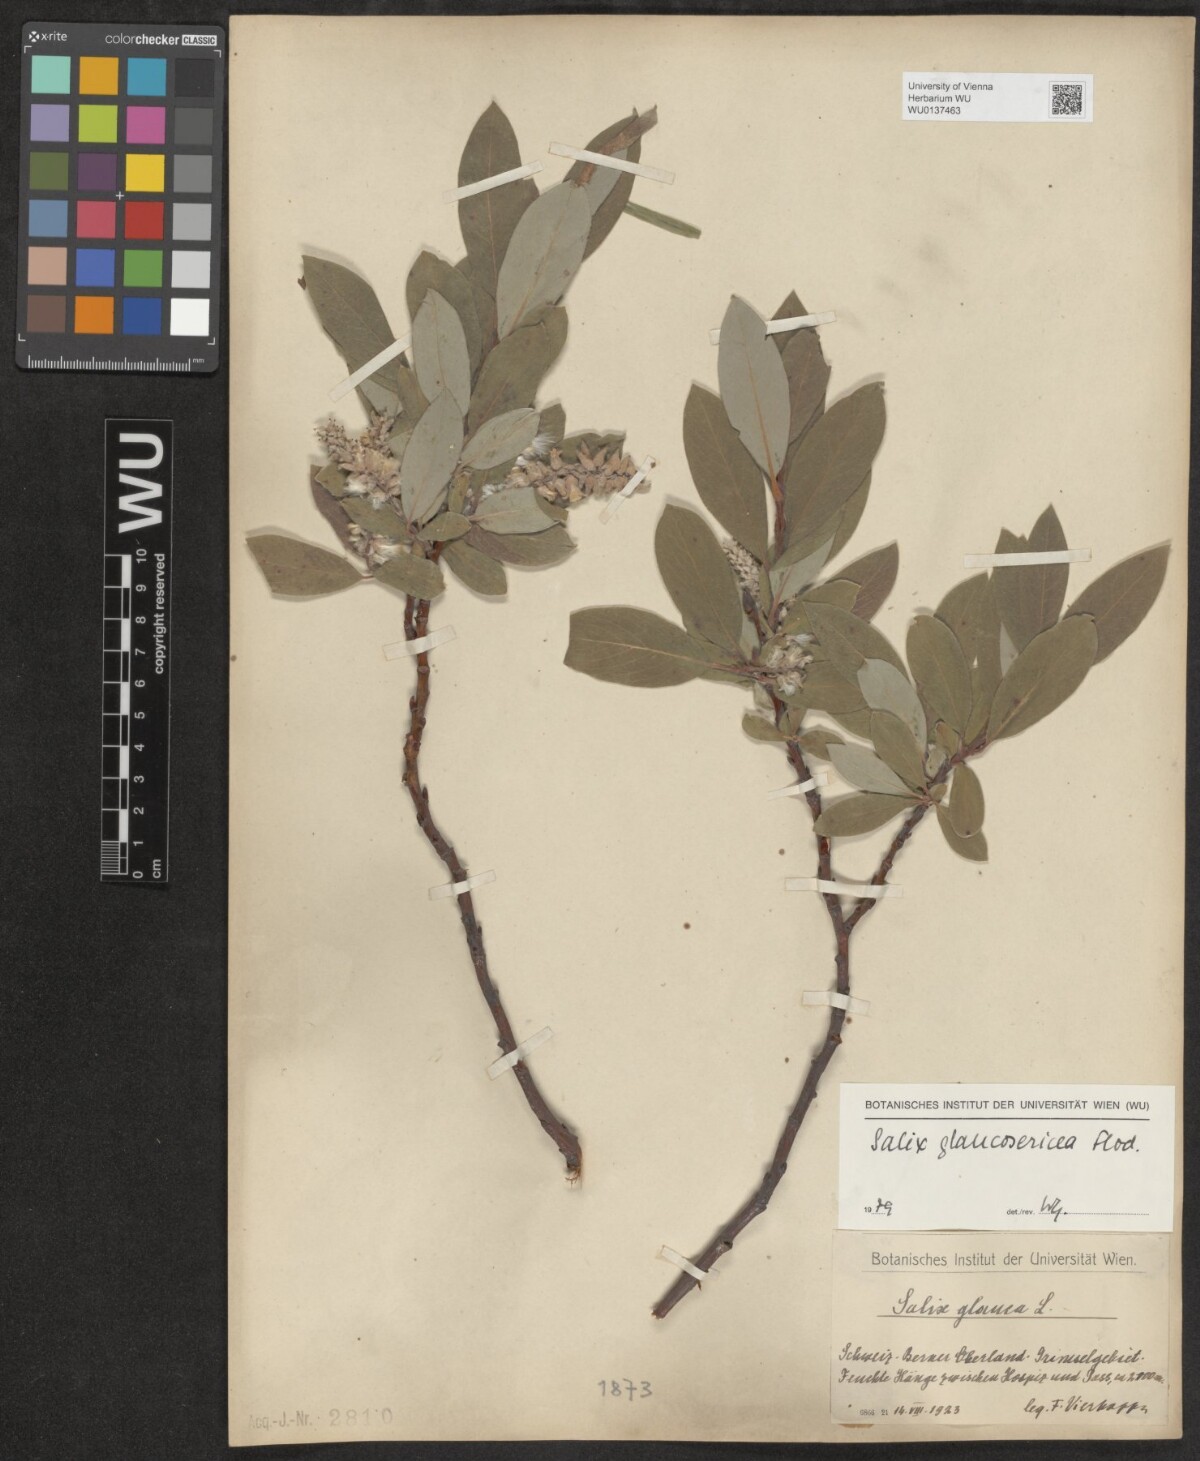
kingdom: Plantae
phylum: Tracheophyta
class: Magnoliopsida
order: Malpighiales
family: Salicaceae
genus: Salix
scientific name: Salix glaucosericea
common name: Alpine gray willow
